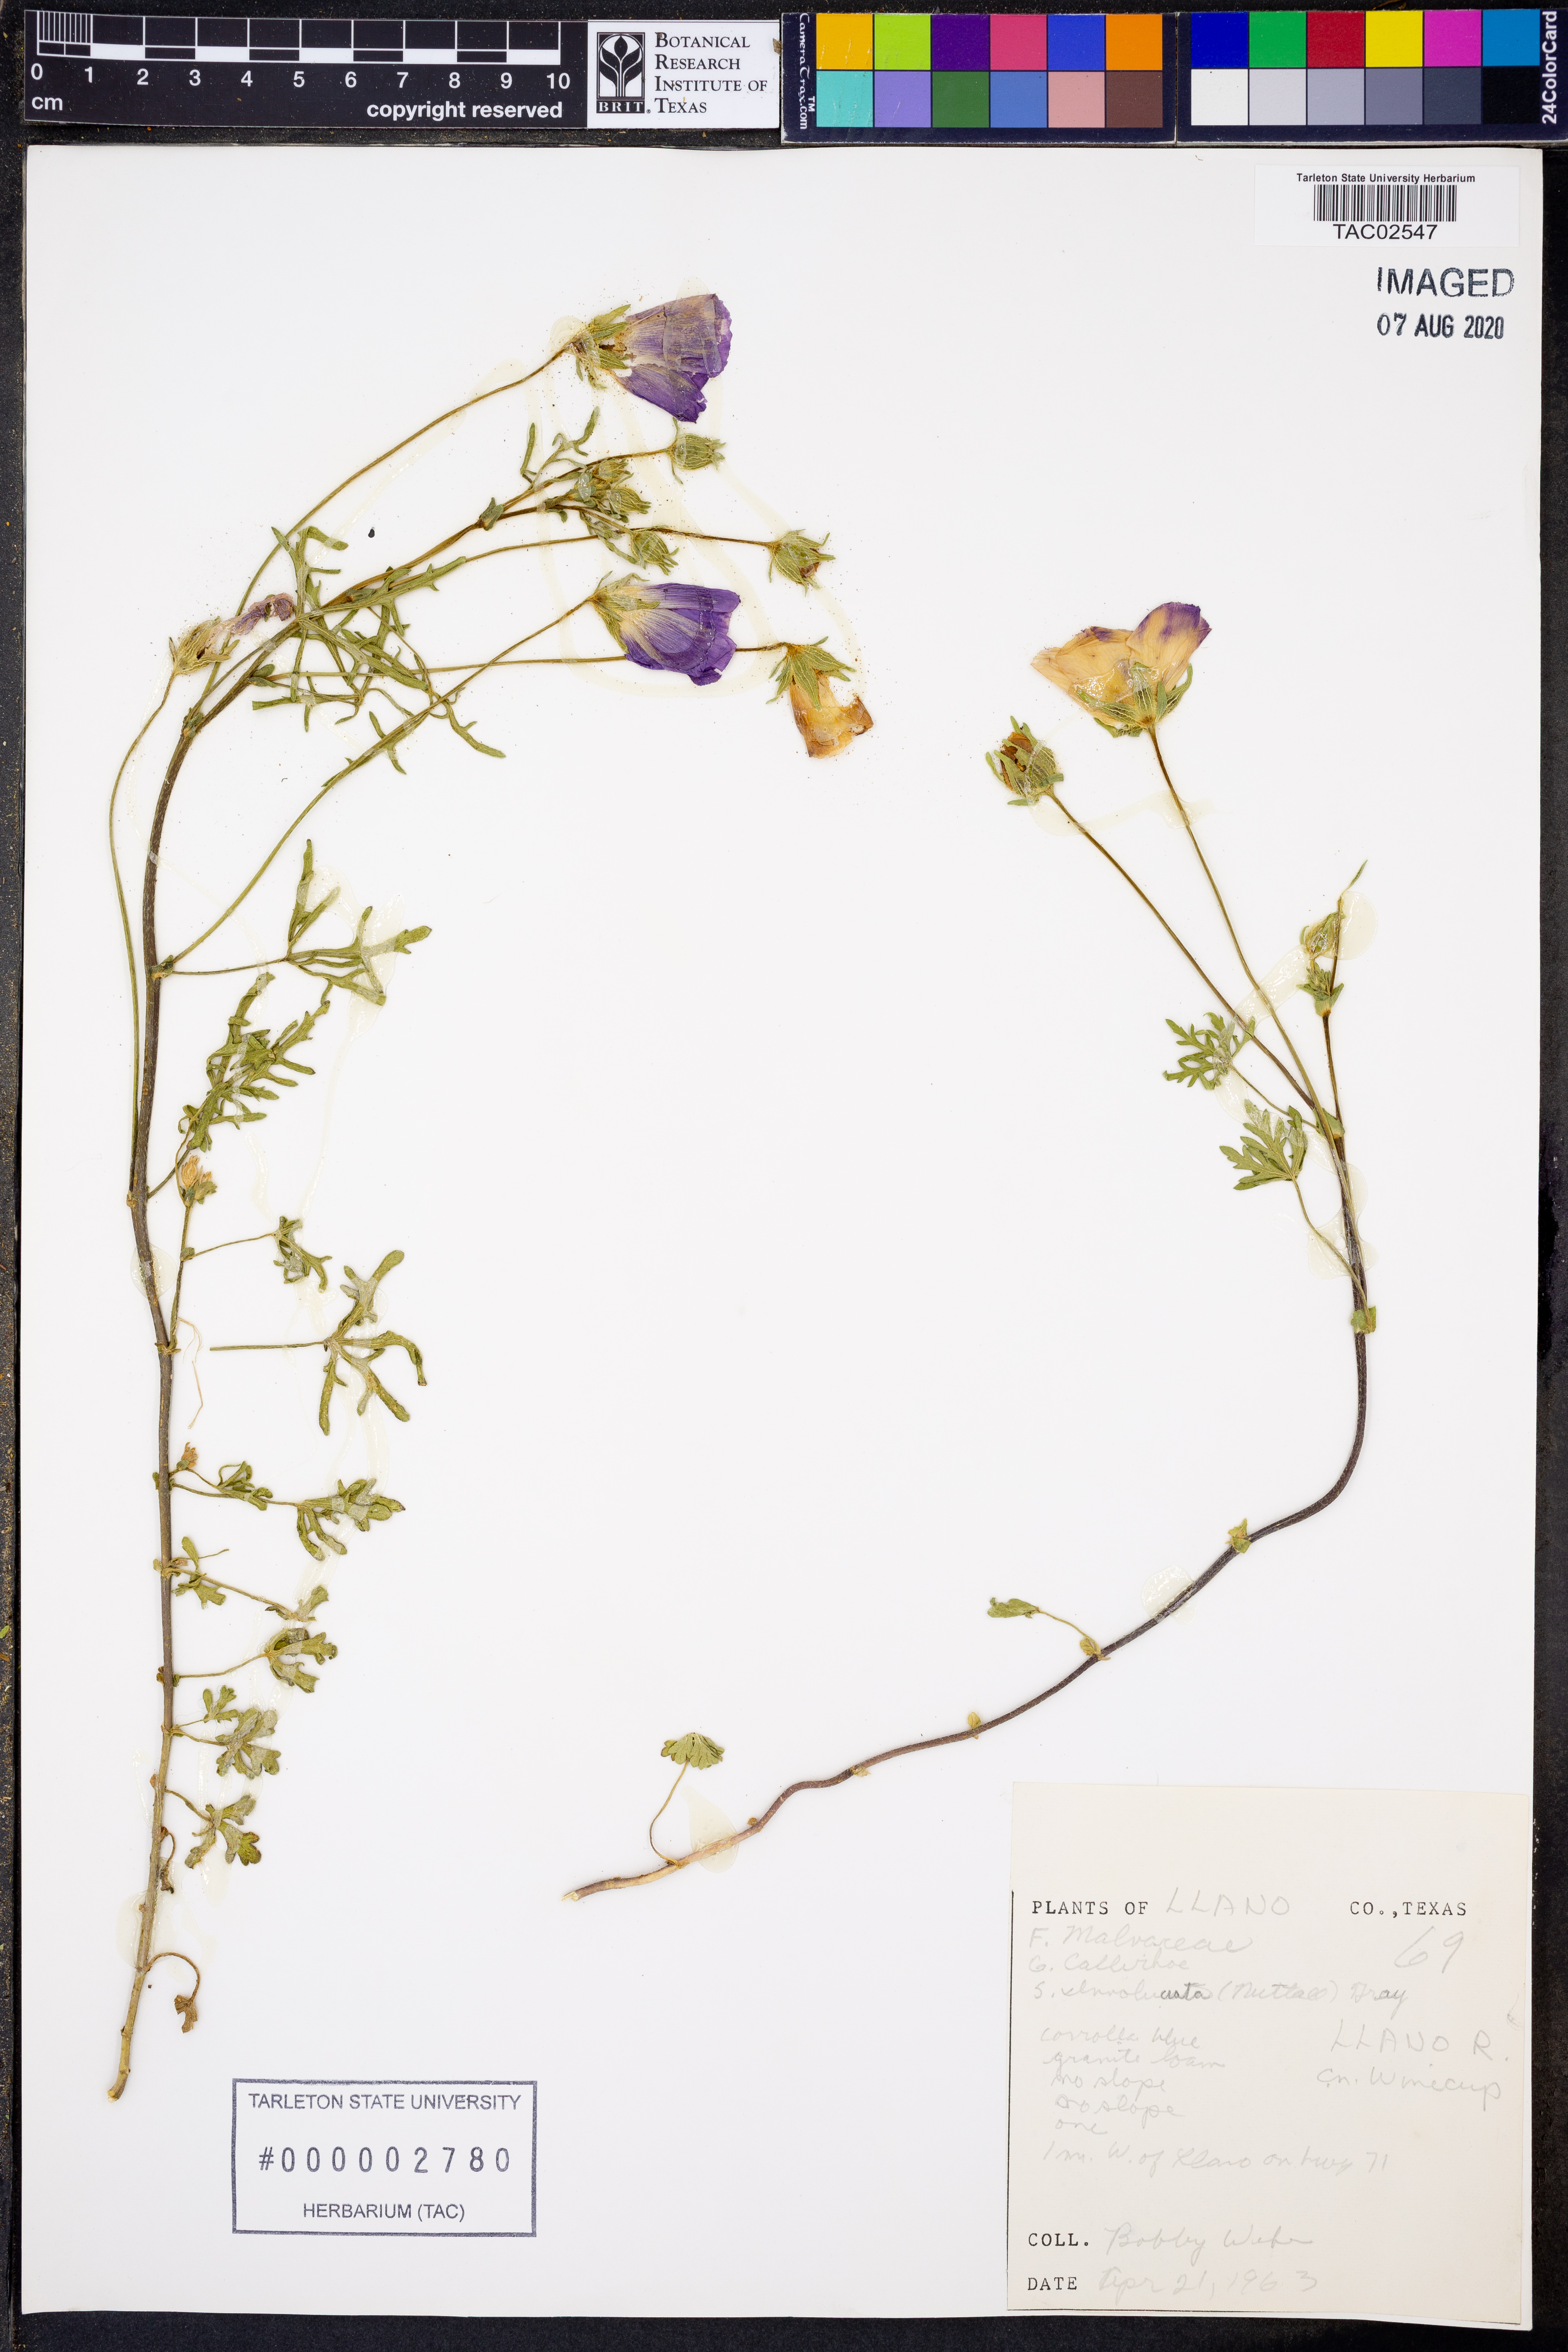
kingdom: Plantae
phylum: Tracheophyta
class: Magnoliopsida
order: Malvales
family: Malvaceae
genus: Callirhoe
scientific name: Callirhoe involucrata
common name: Purple poppy-mallow
